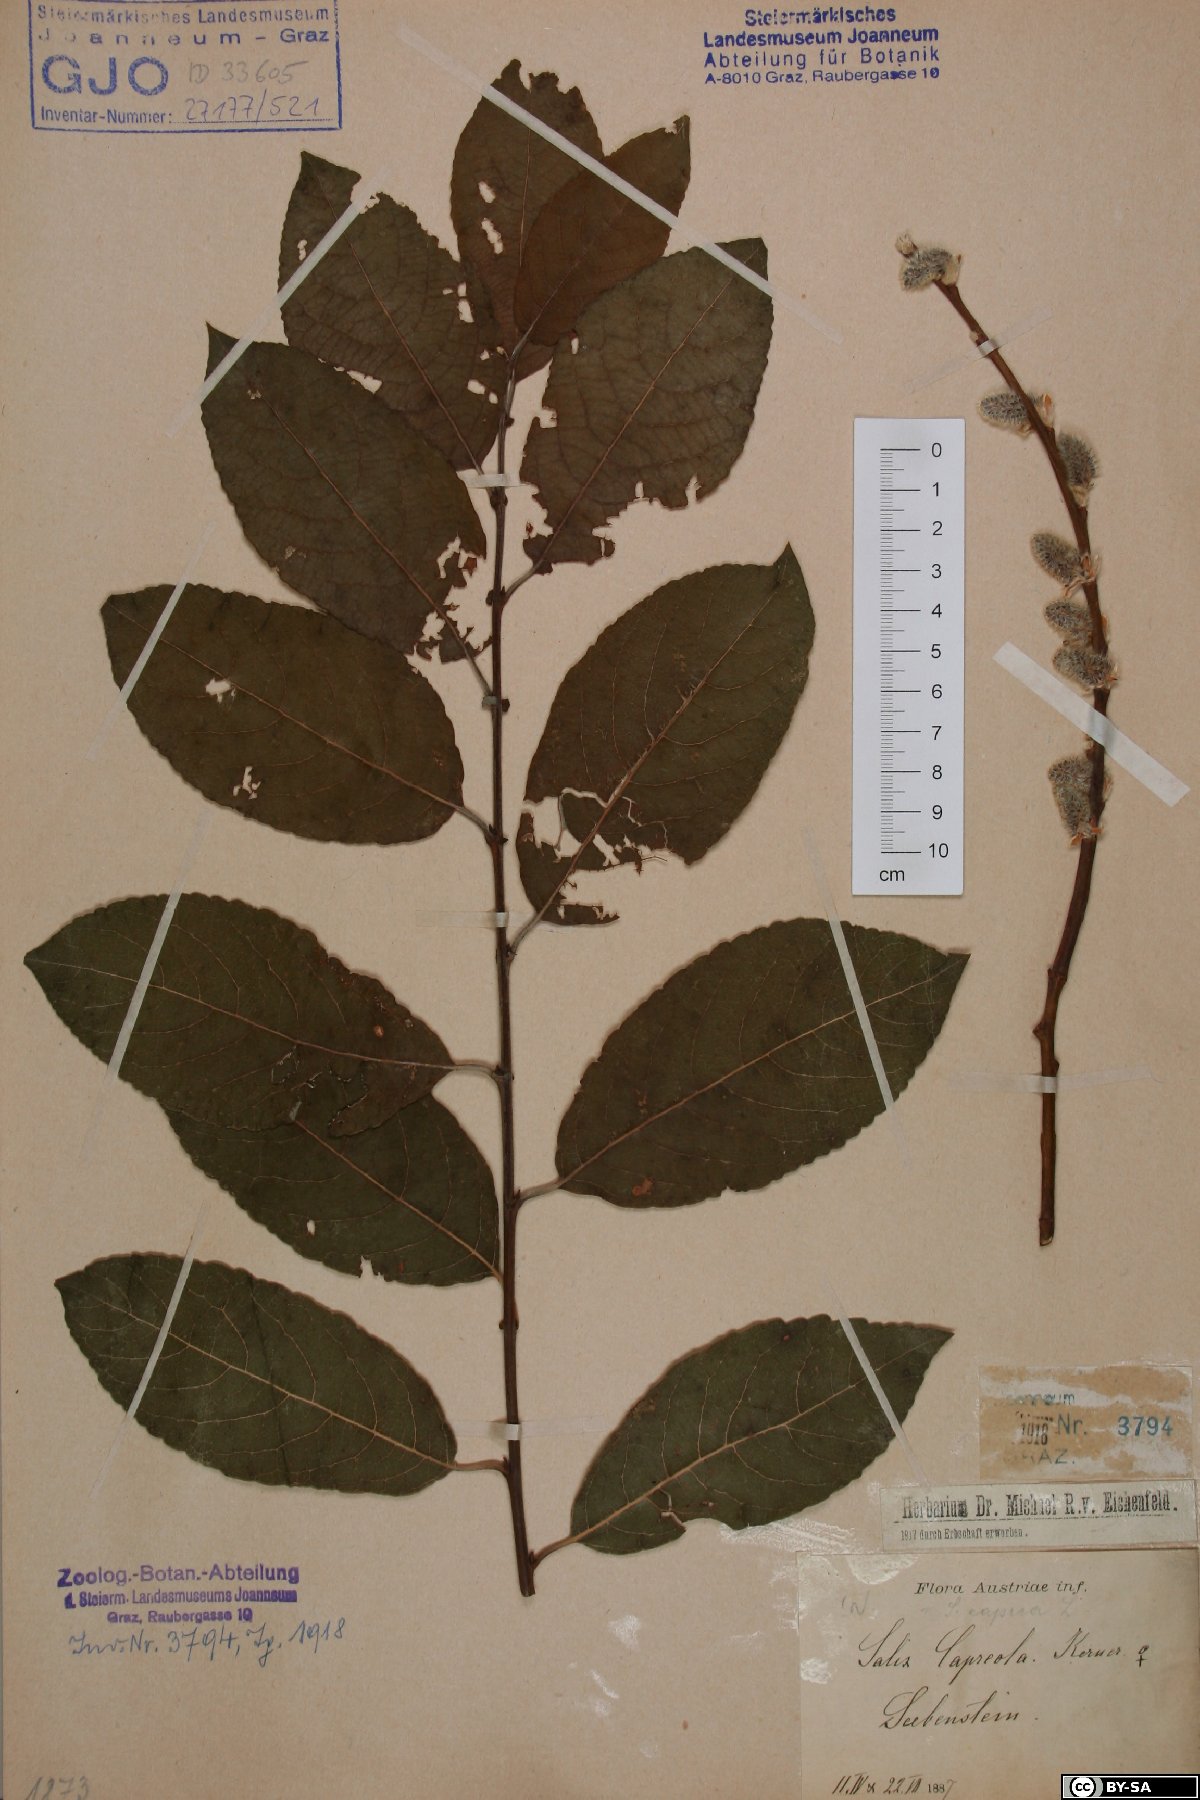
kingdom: Plantae
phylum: Tracheophyta
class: Magnoliopsida
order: Malpighiales
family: Salicaceae
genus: Salix
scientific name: Salix caprea
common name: Goat willow
